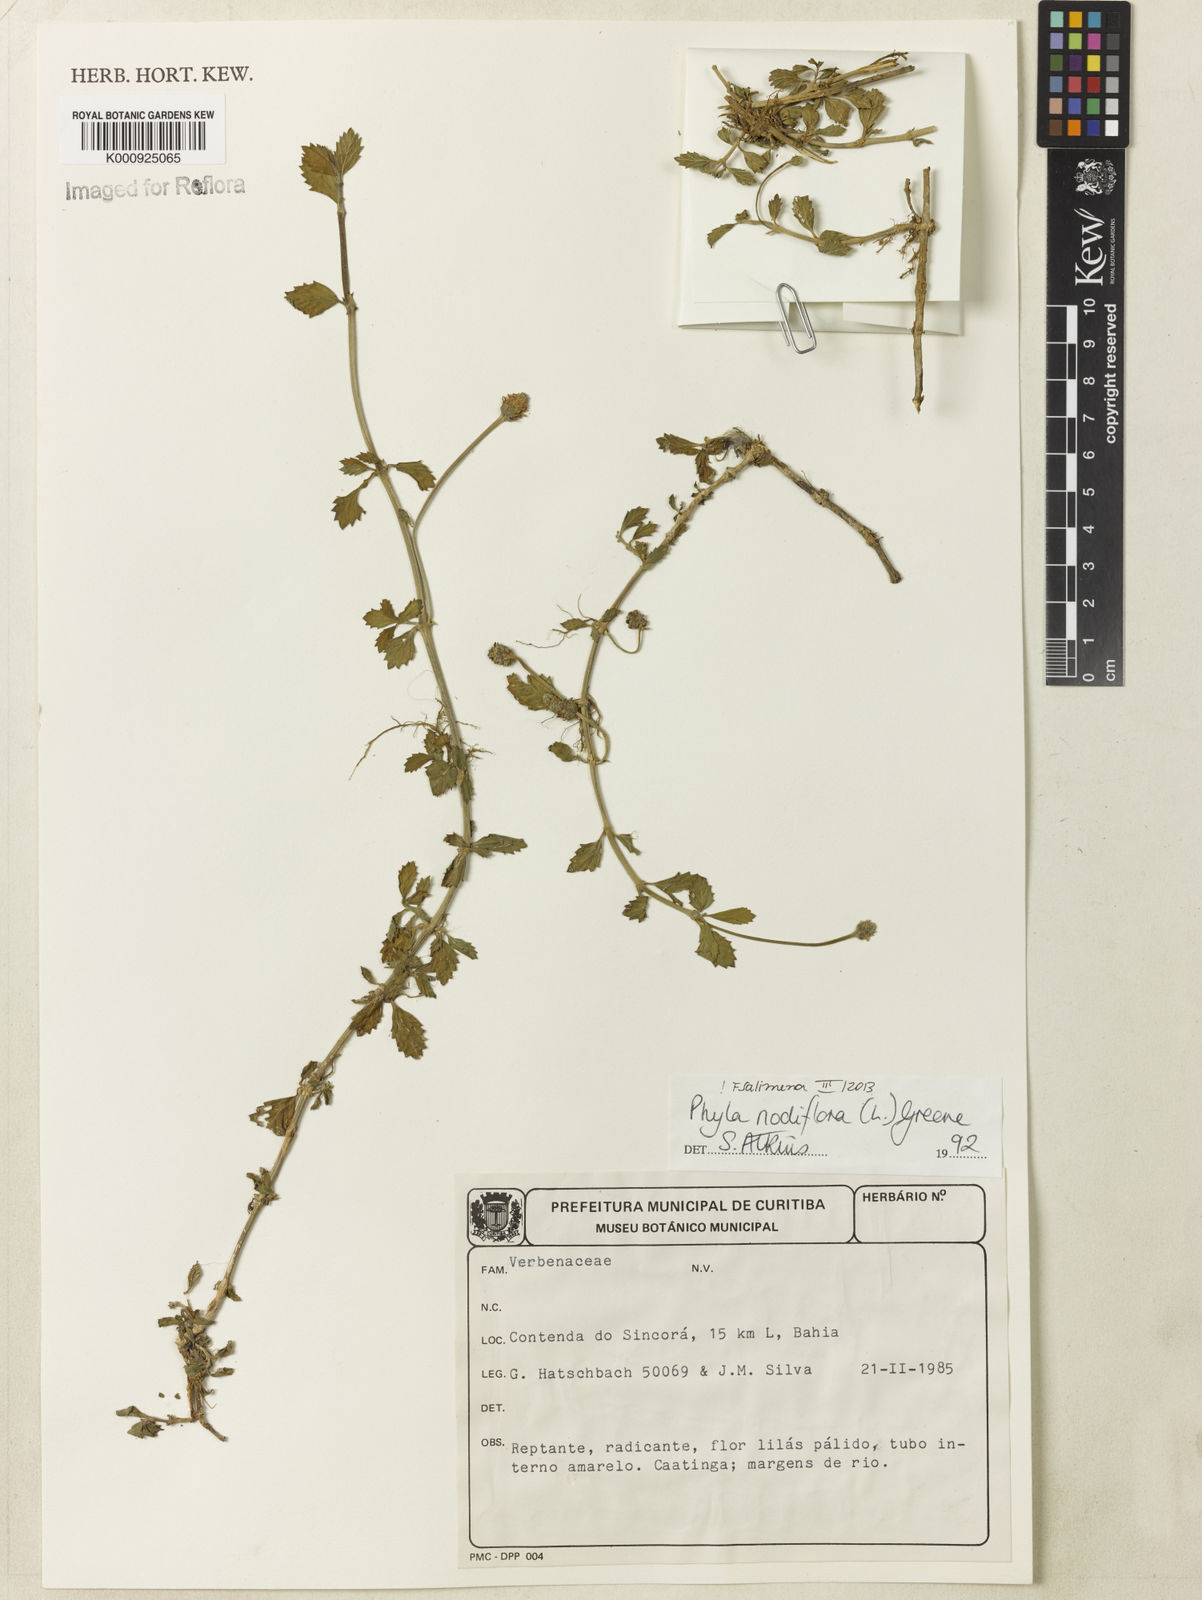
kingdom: Plantae
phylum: Tracheophyta
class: Magnoliopsida
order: Lamiales
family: Verbenaceae
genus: Lippia
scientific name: Lippia
